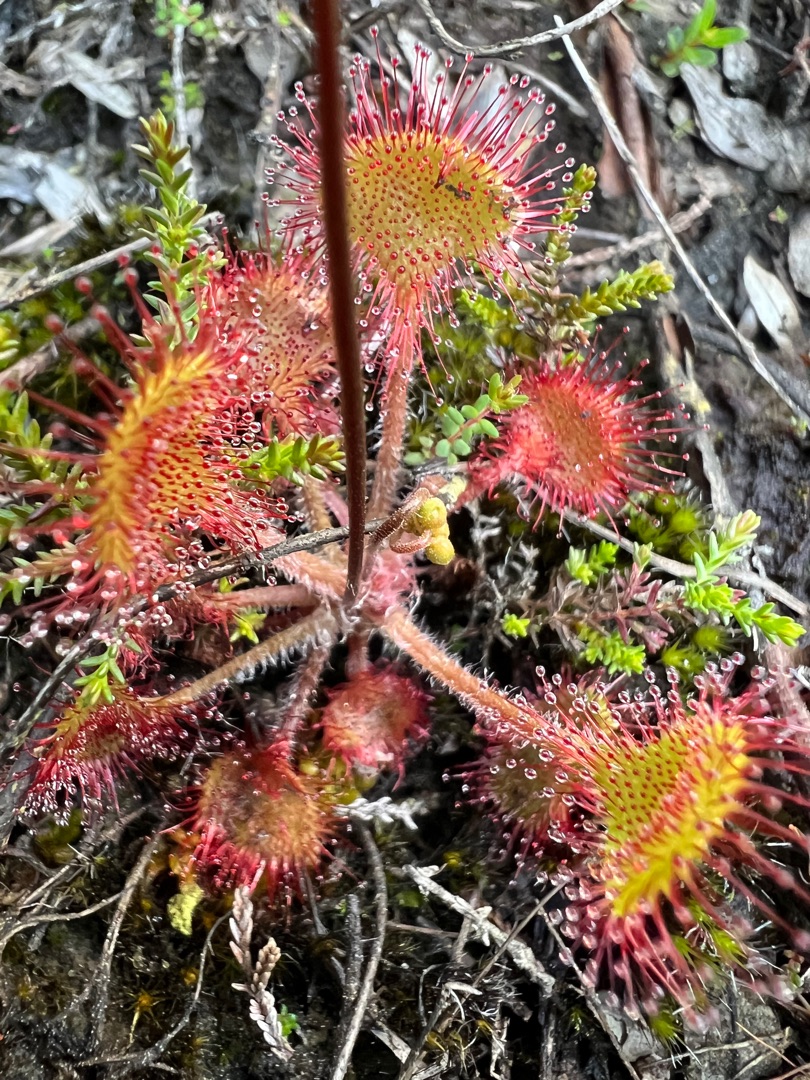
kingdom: Plantae
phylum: Tracheophyta
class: Magnoliopsida
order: Caryophyllales
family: Droseraceae
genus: Drosera
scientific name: Drosera rotundifolia
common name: Rundbladet soldug
